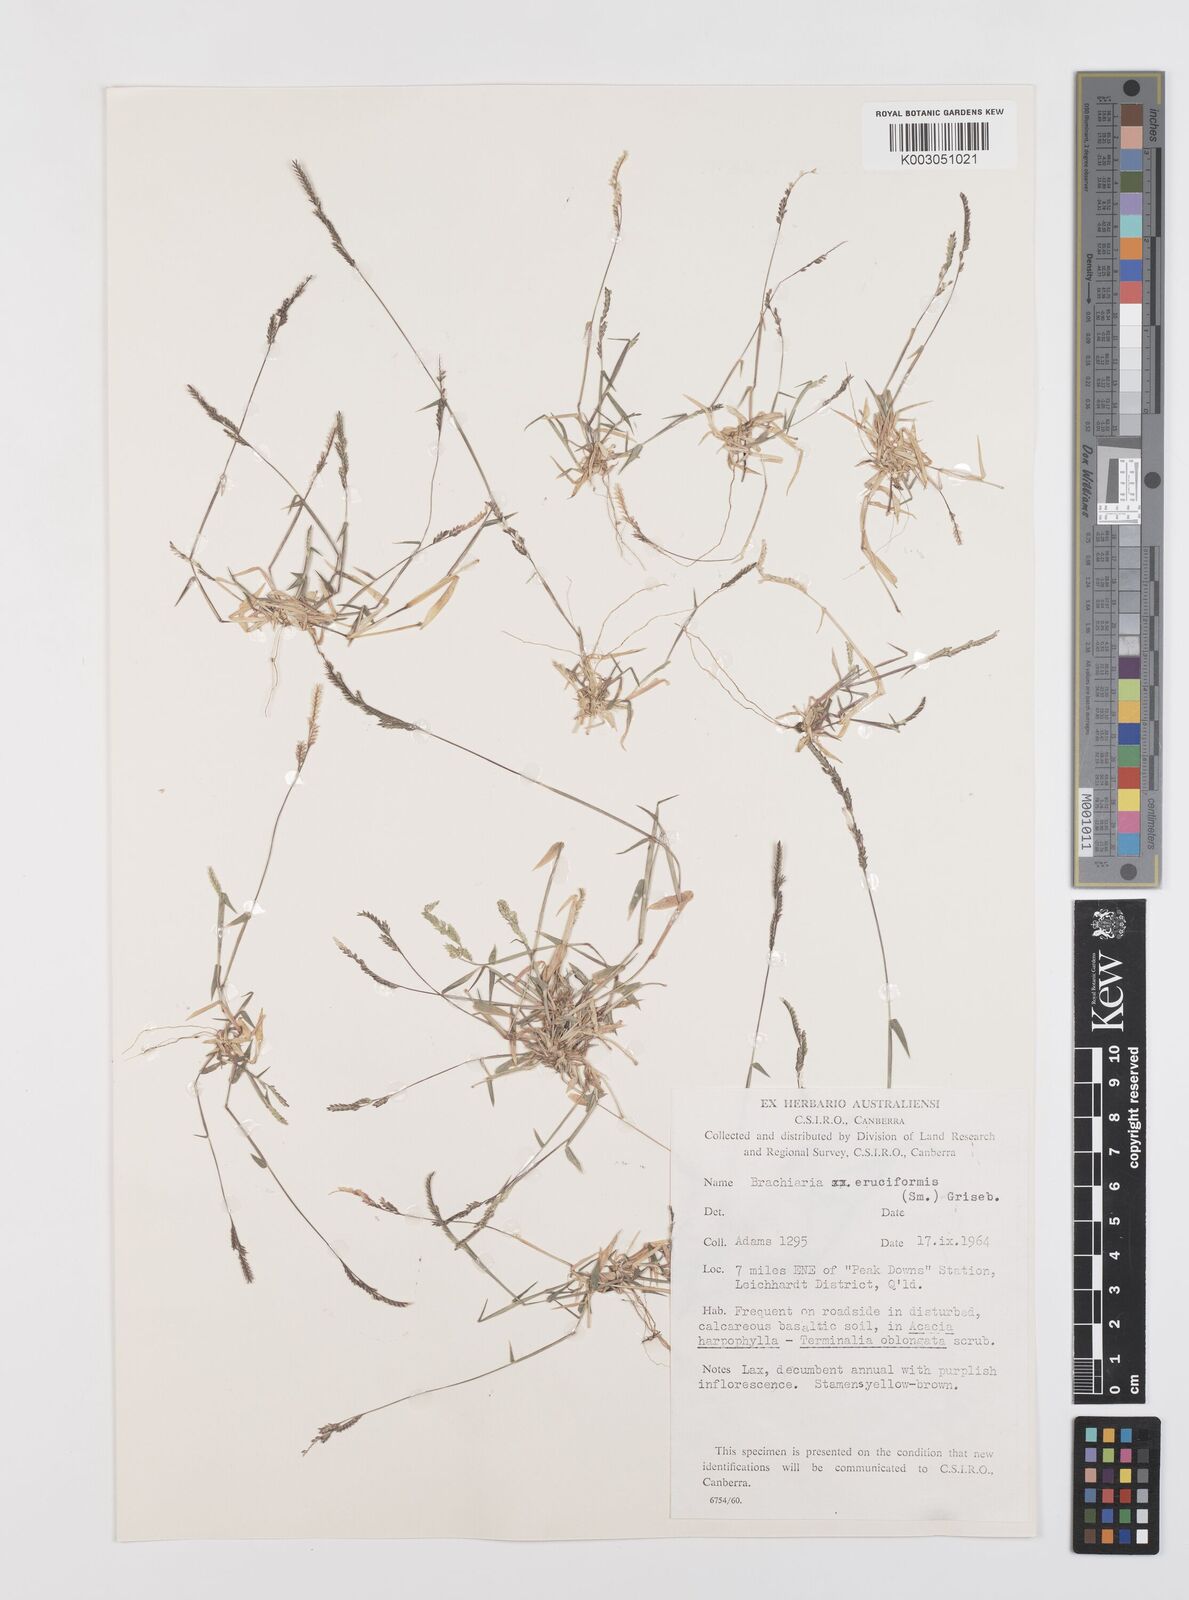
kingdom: Plantae
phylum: Tracheophyta
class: Liliopsida
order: Poales
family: Poaceae
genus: Moorochloa
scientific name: Moorochloa eruciformis
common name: Sweet signalgrass
